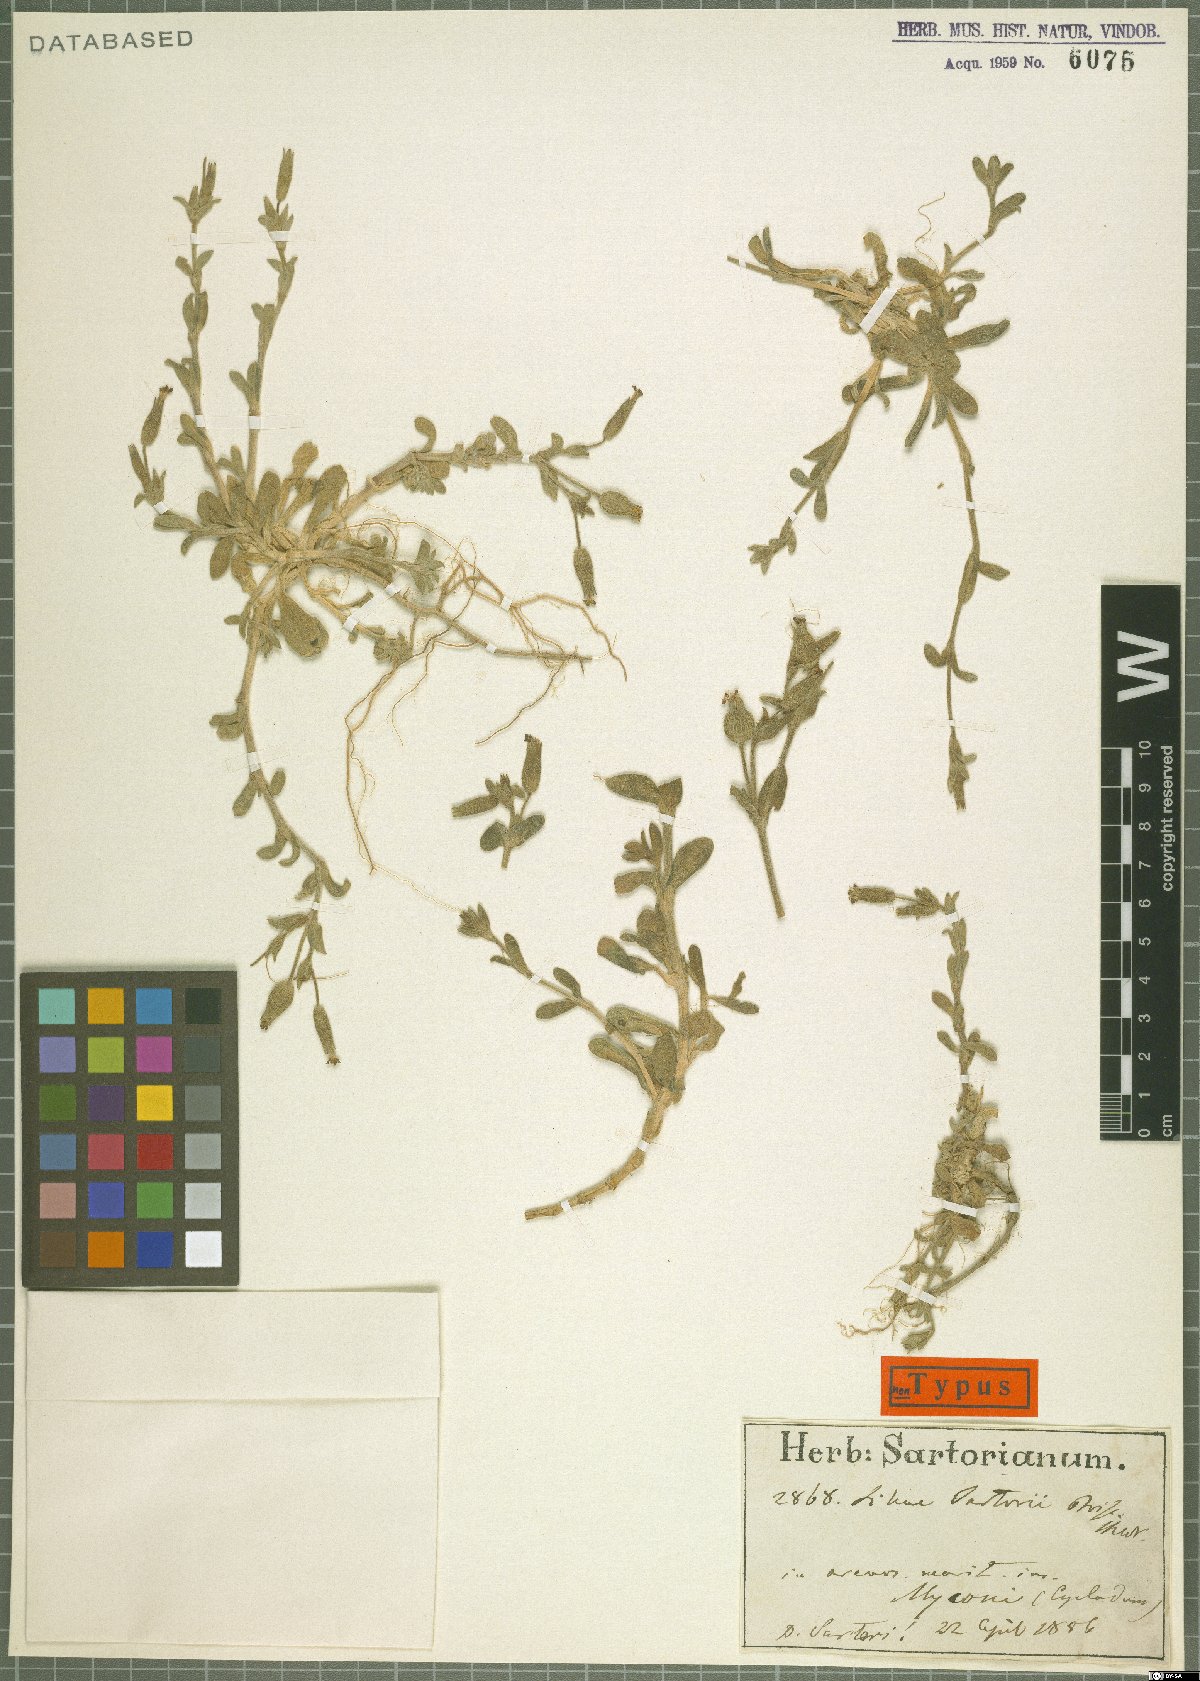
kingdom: Plantae
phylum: Tracheophyta
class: Magnoliopsida
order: Caryophyllales
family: Caryophyllaceae
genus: Silene
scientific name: Silene sartorii
